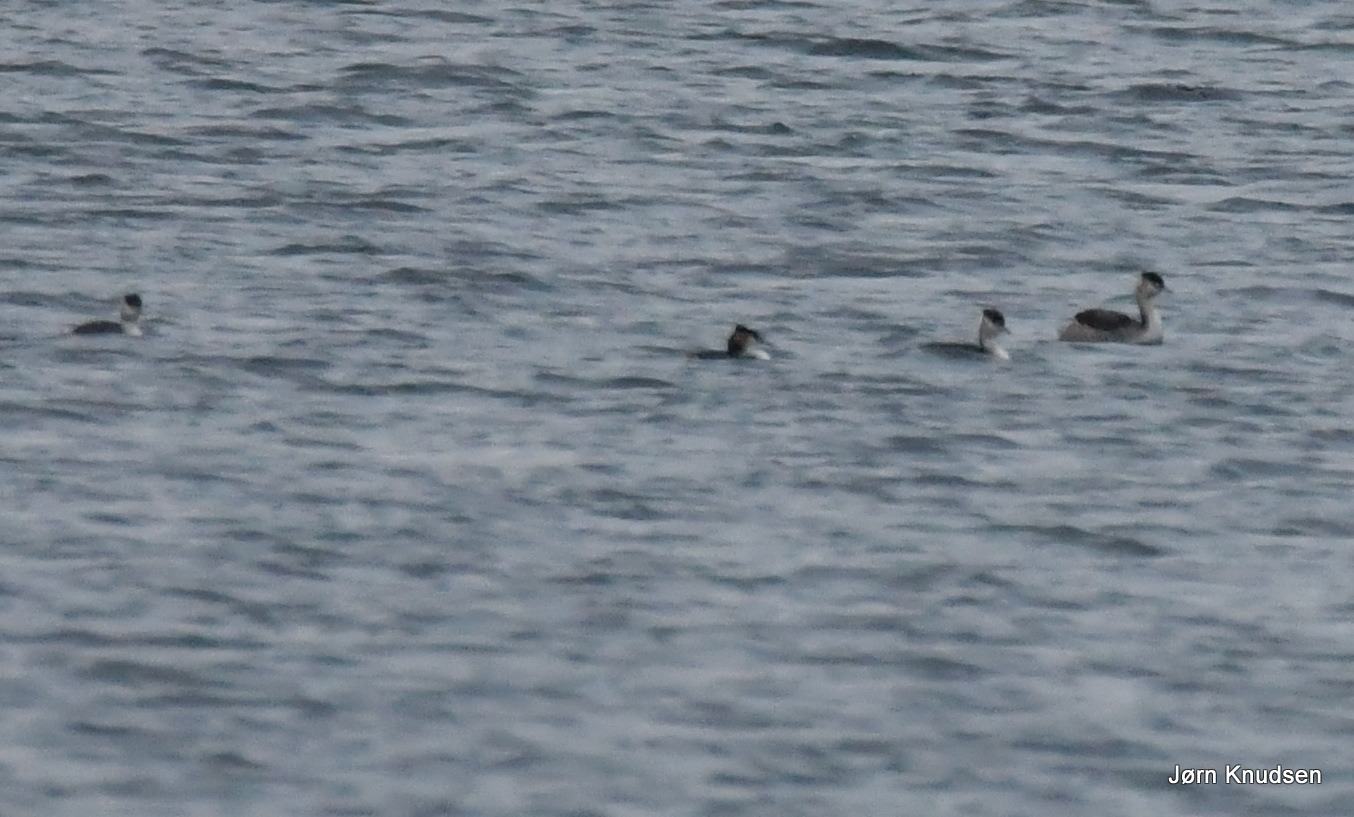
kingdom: Animalia
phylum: Chordata
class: Aves
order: Podicipediformes
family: Podicipedidae
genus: Podiceps
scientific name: Podiceps cristatus
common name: Toppet lappedykker
